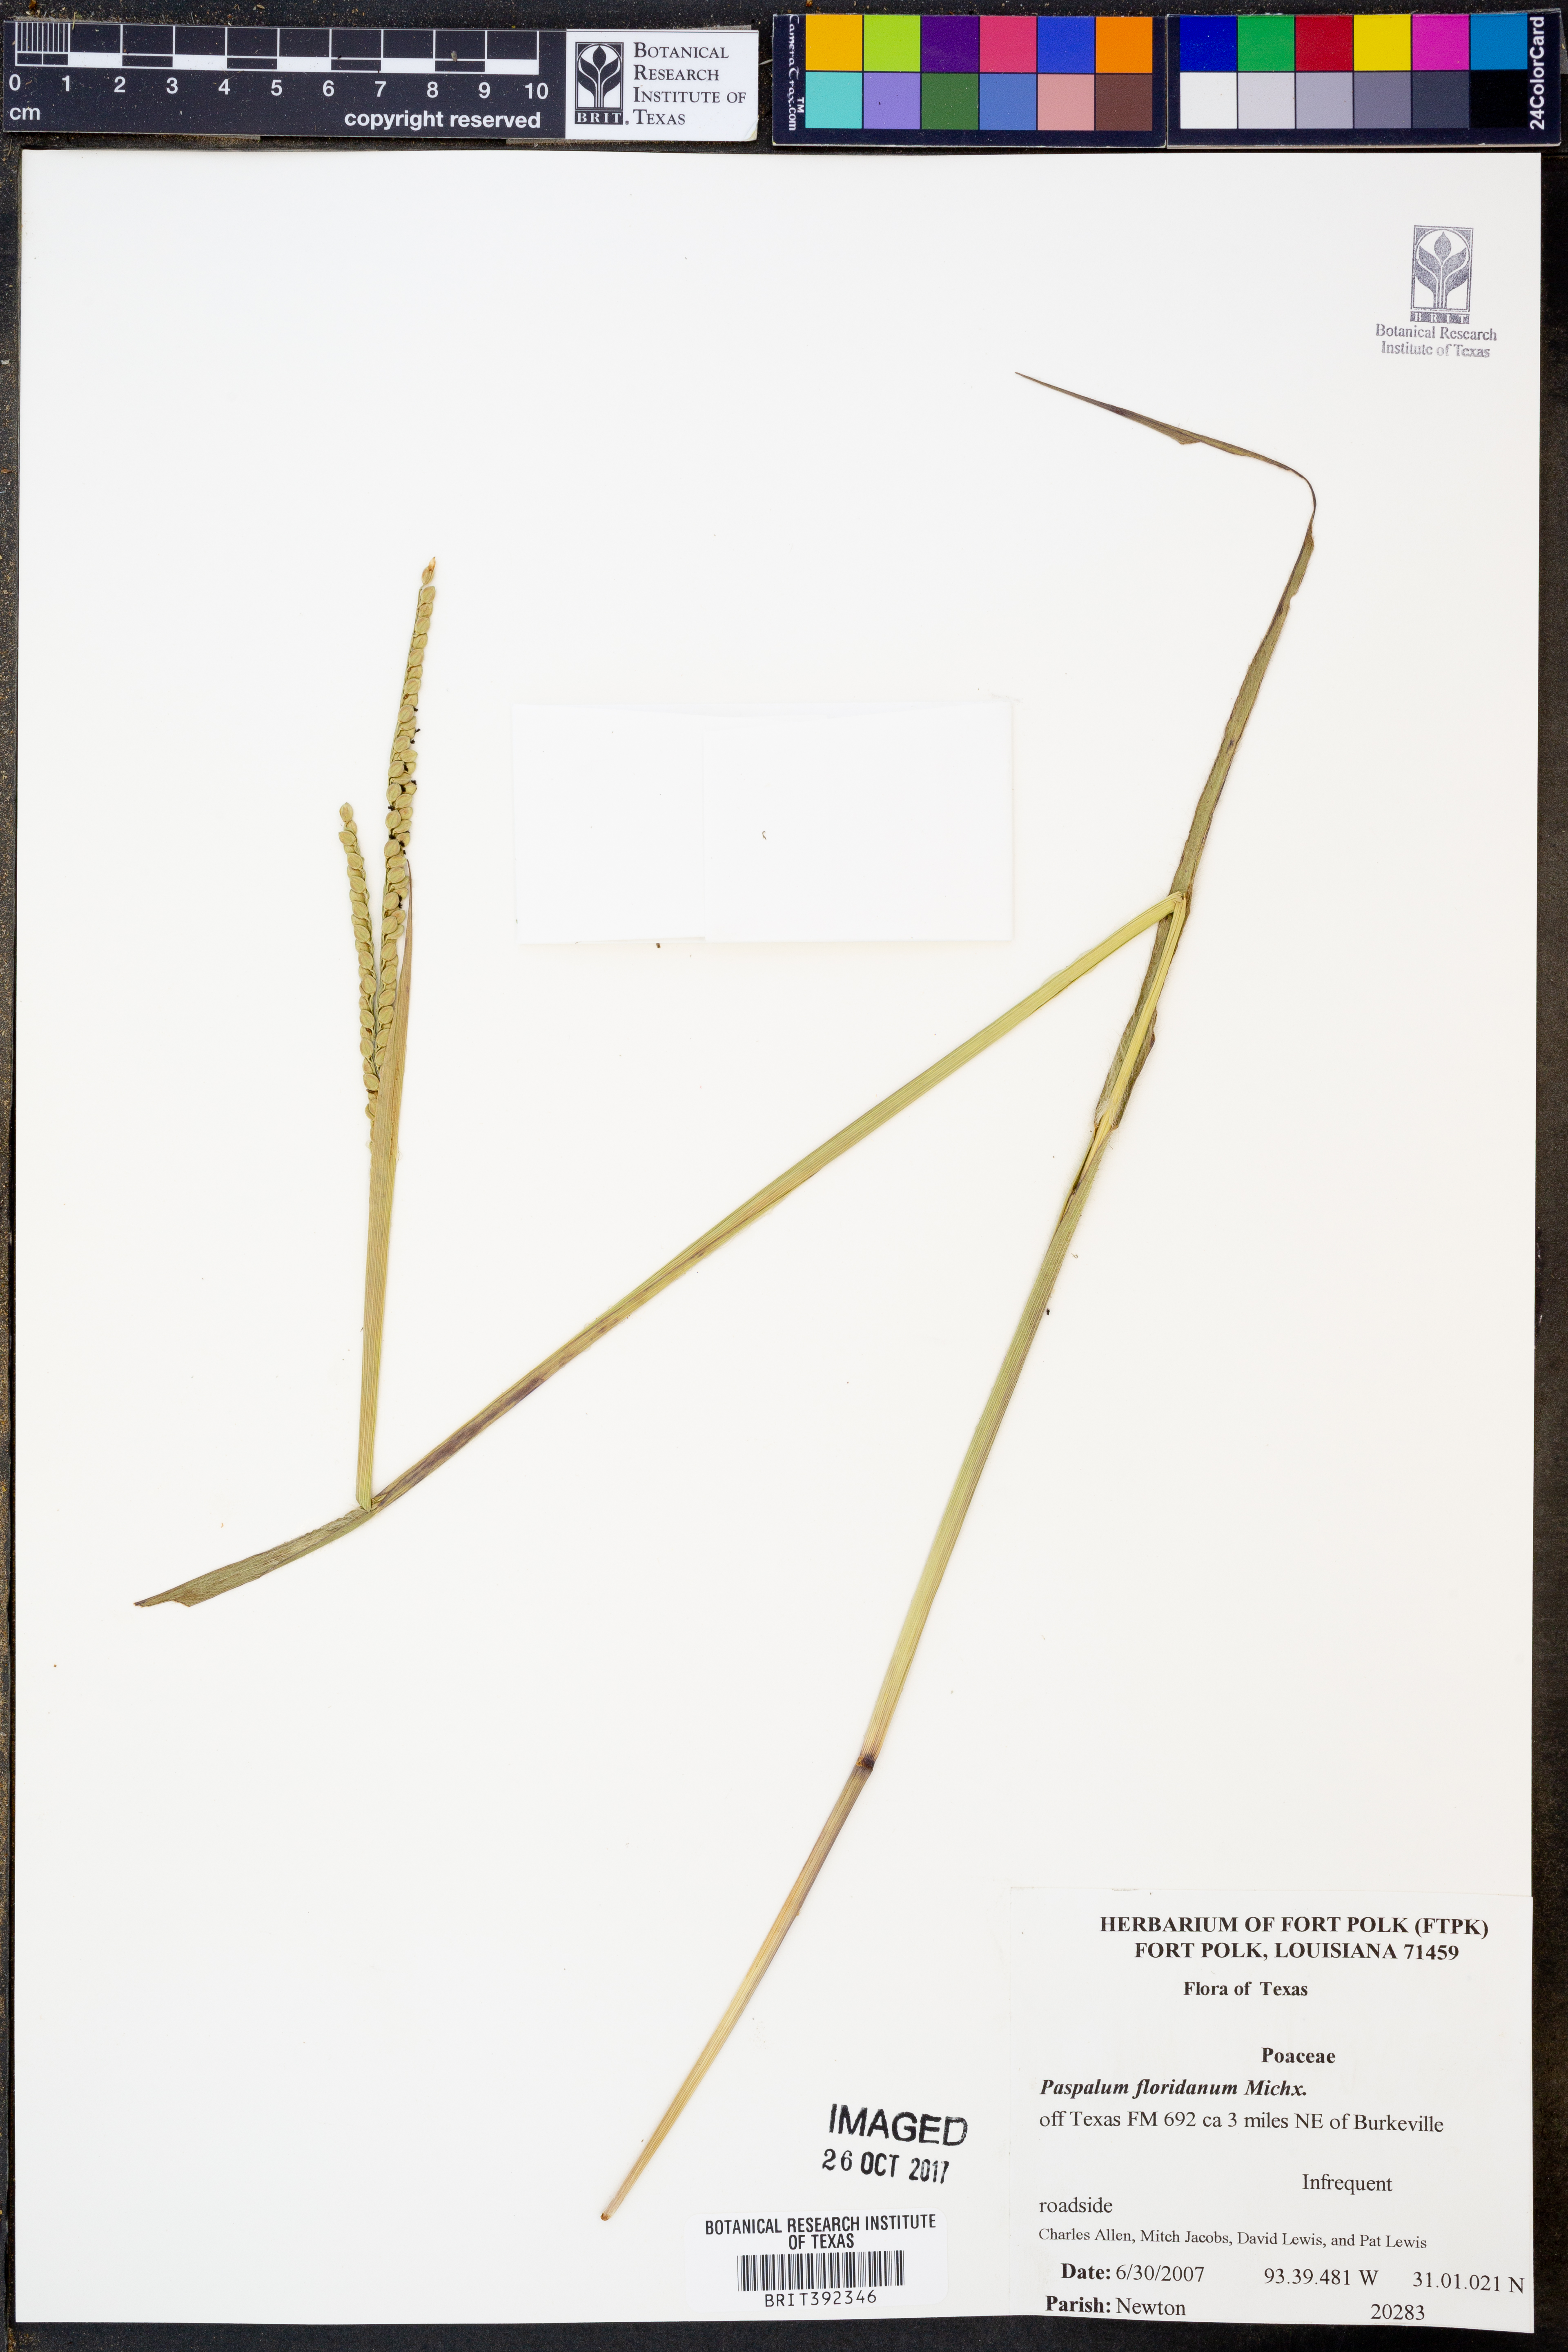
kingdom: Plantae
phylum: Tracheophyta
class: Liliopsida
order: Poales
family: Poaceae
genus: Paspalum
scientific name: Paspalum floridanum
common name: Florida paspalum
